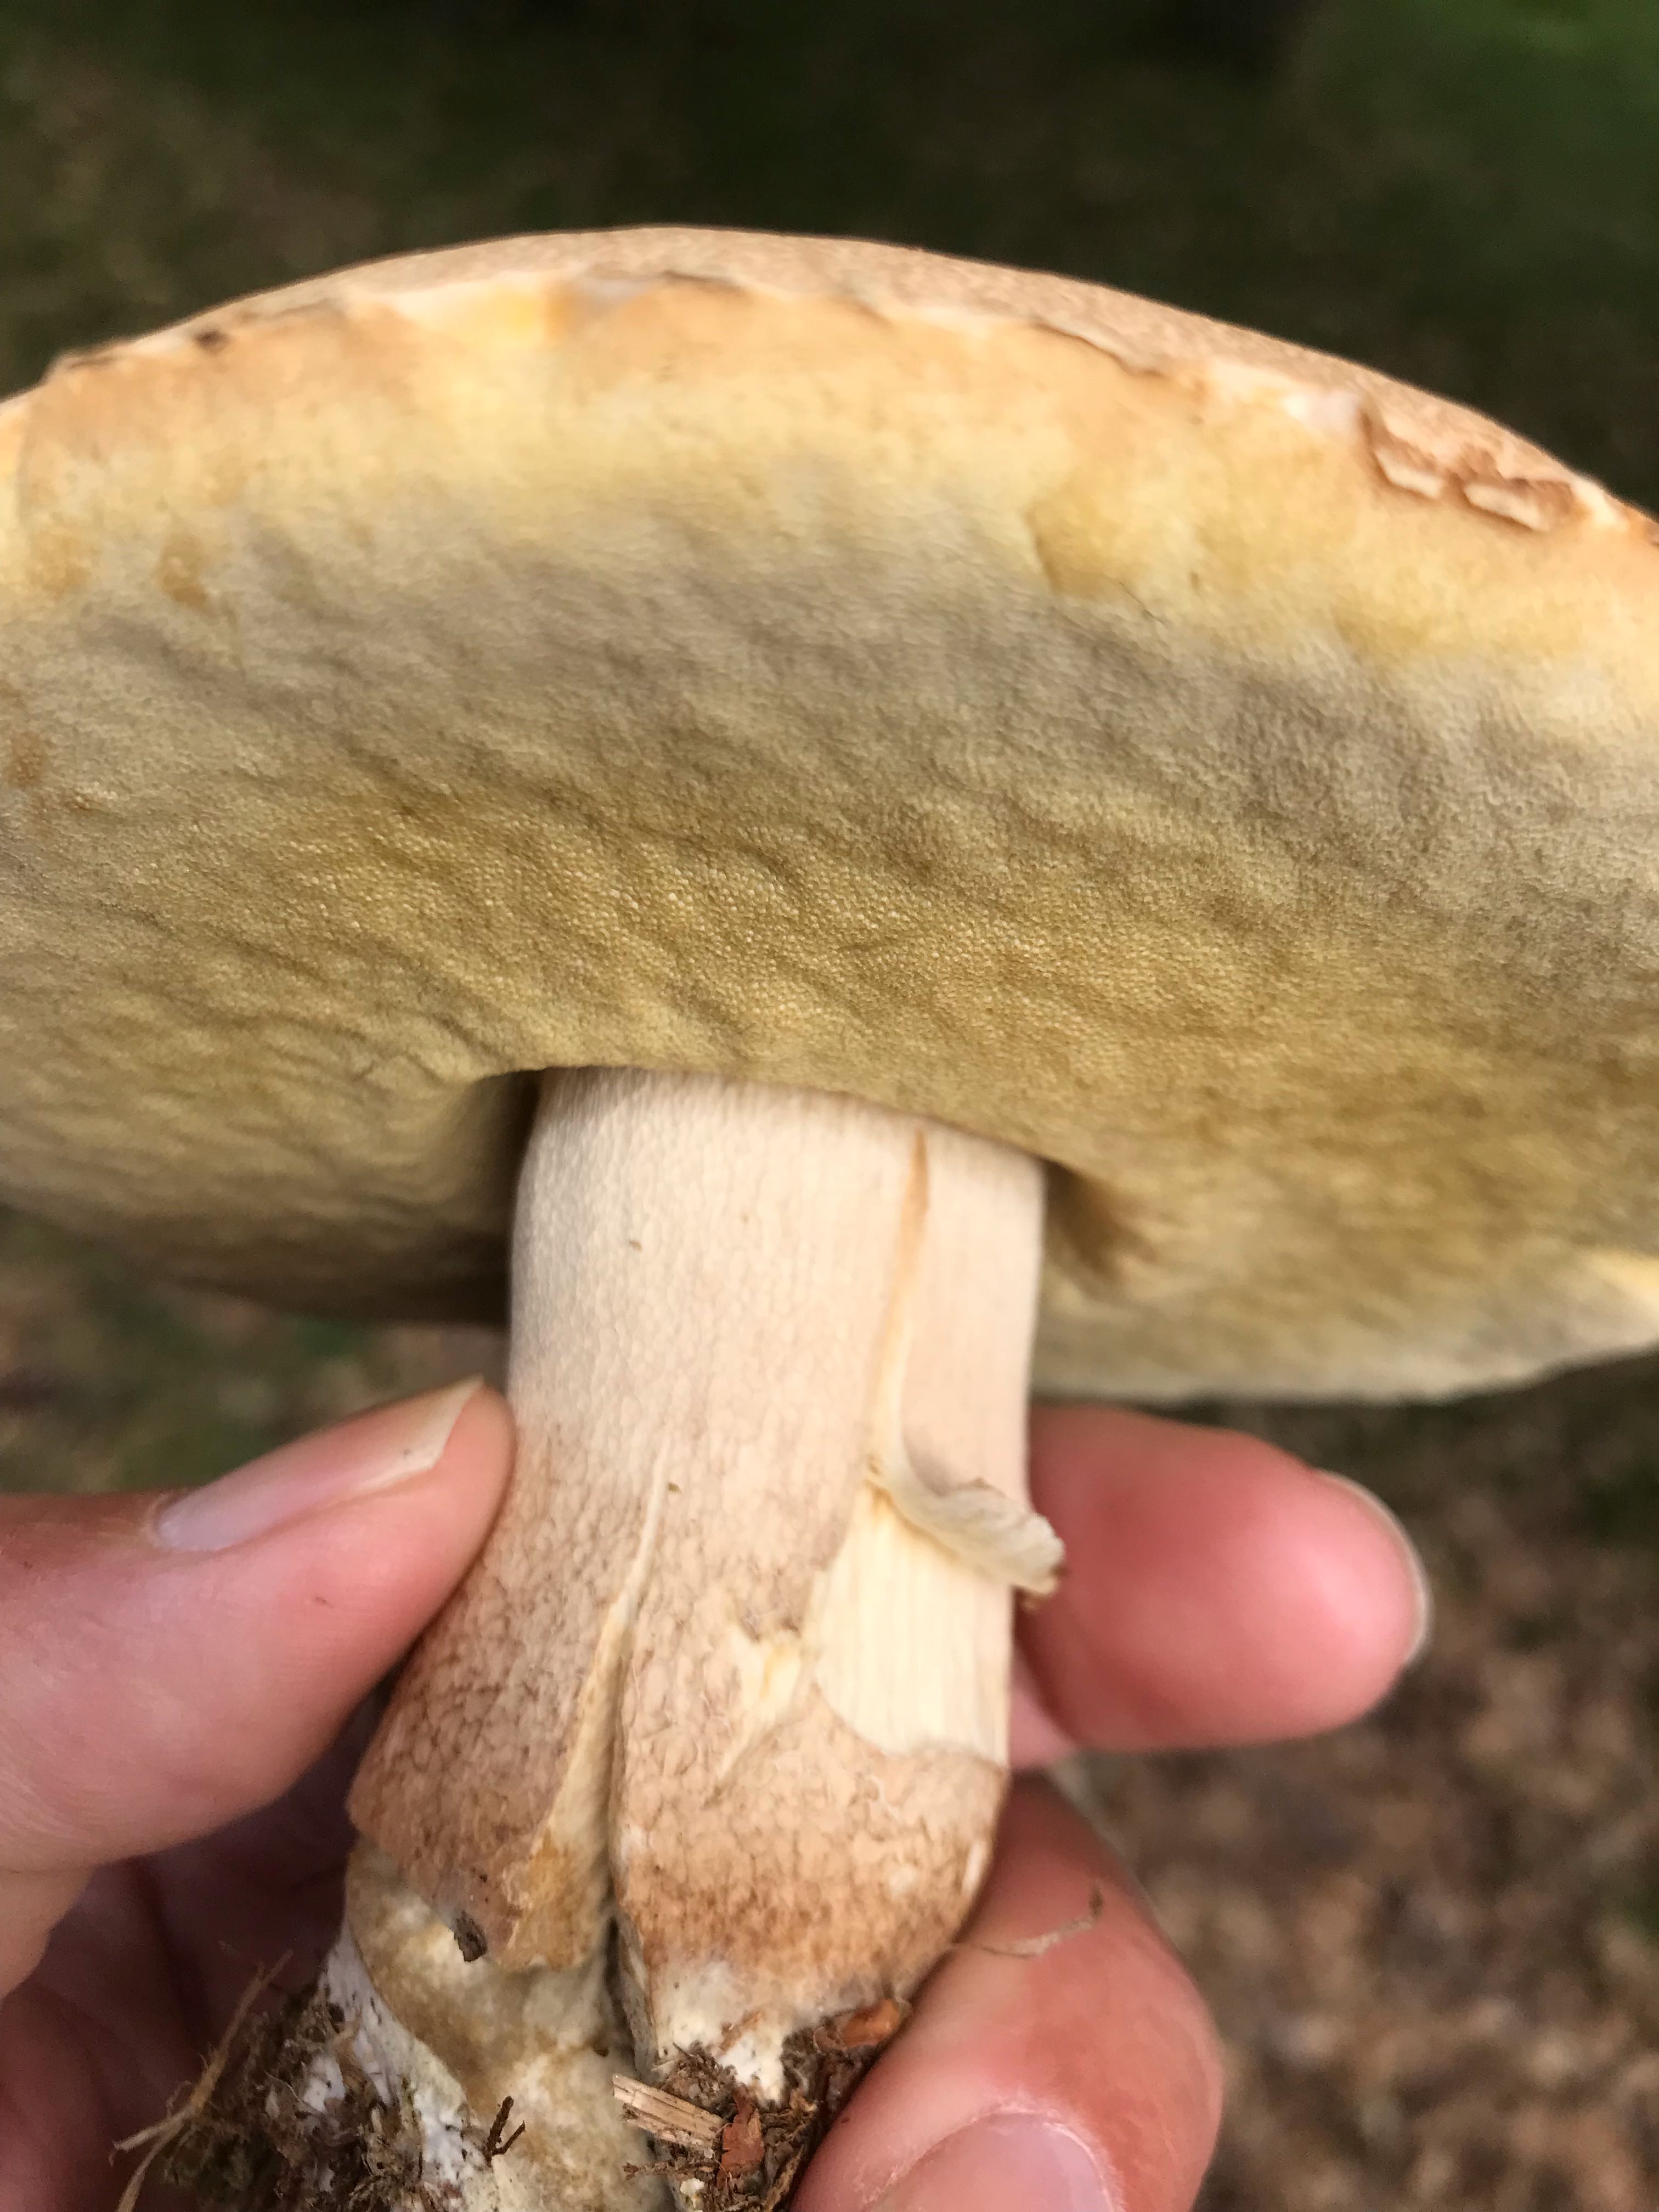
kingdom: Fungi
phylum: Basidiomycota
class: Agaricomycetes
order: Boletales
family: Boletaceae
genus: Boletus
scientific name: Boletus reticulatus
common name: sommer-rørhat
